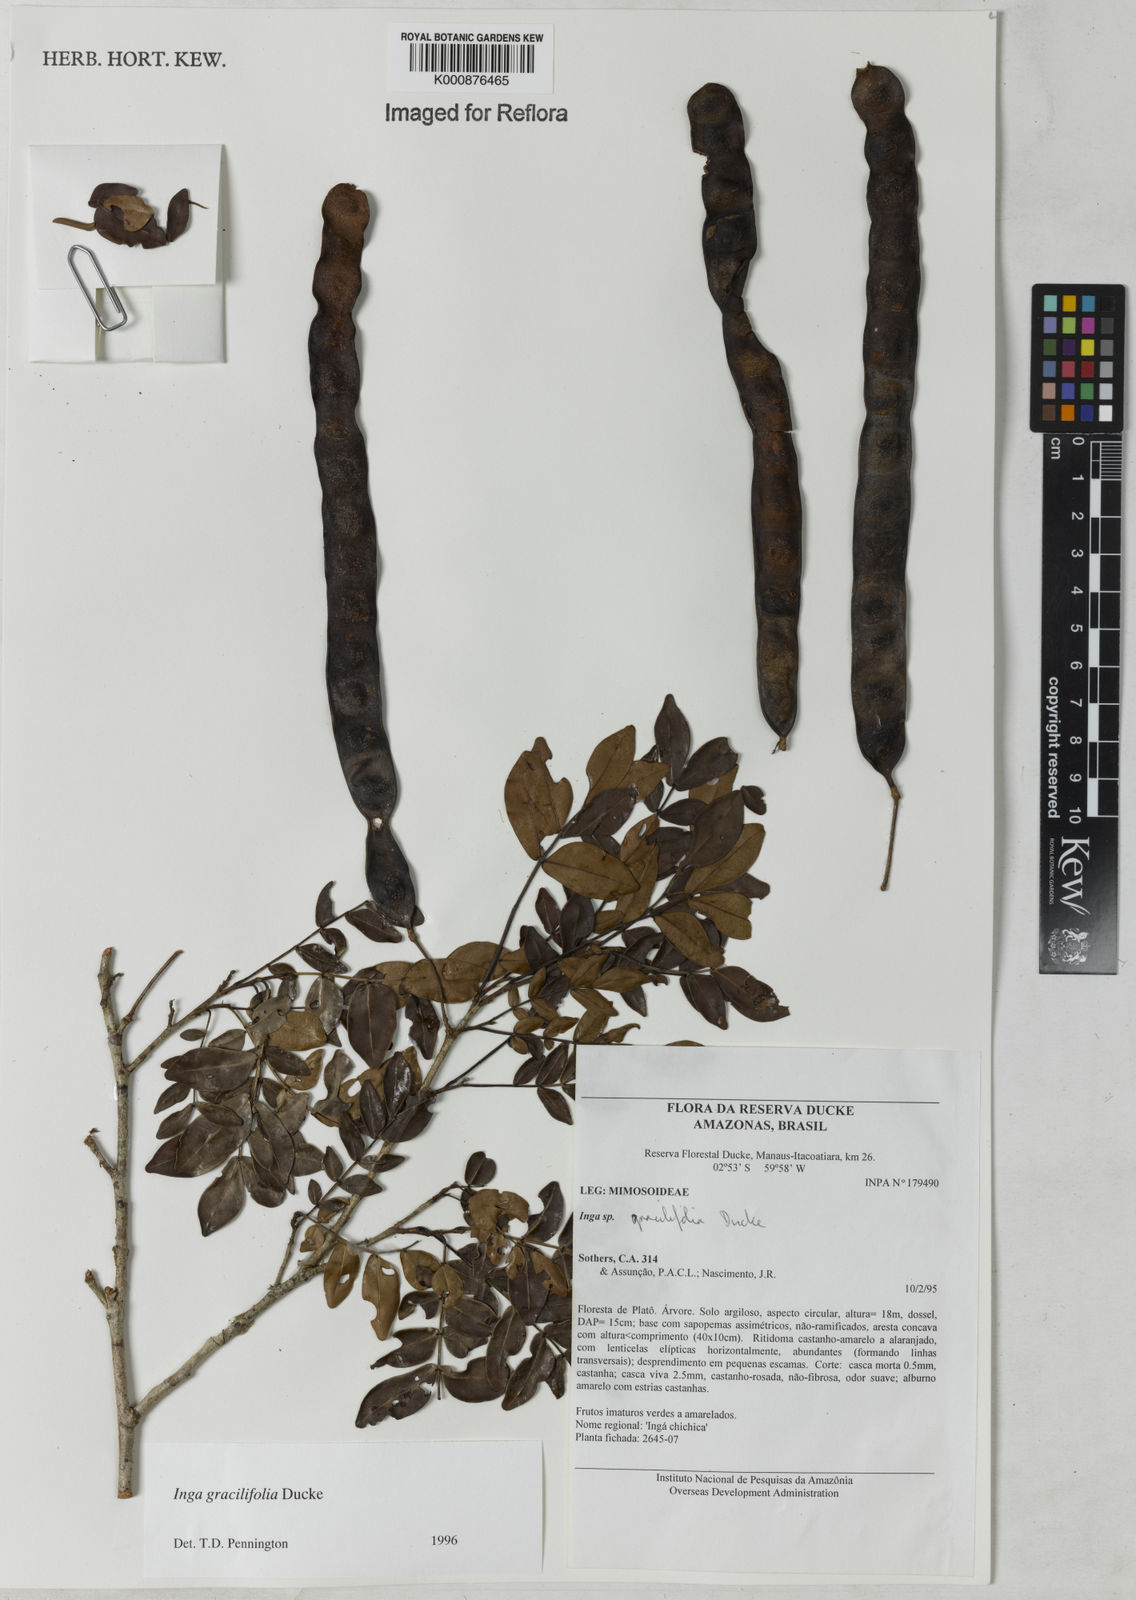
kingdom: Plantae
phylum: Tracheophyta
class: Magnoliopsida
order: Fabales
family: Fabaceae
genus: Inga
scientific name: Inga gracilifolia
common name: Gracefulleaf inga
